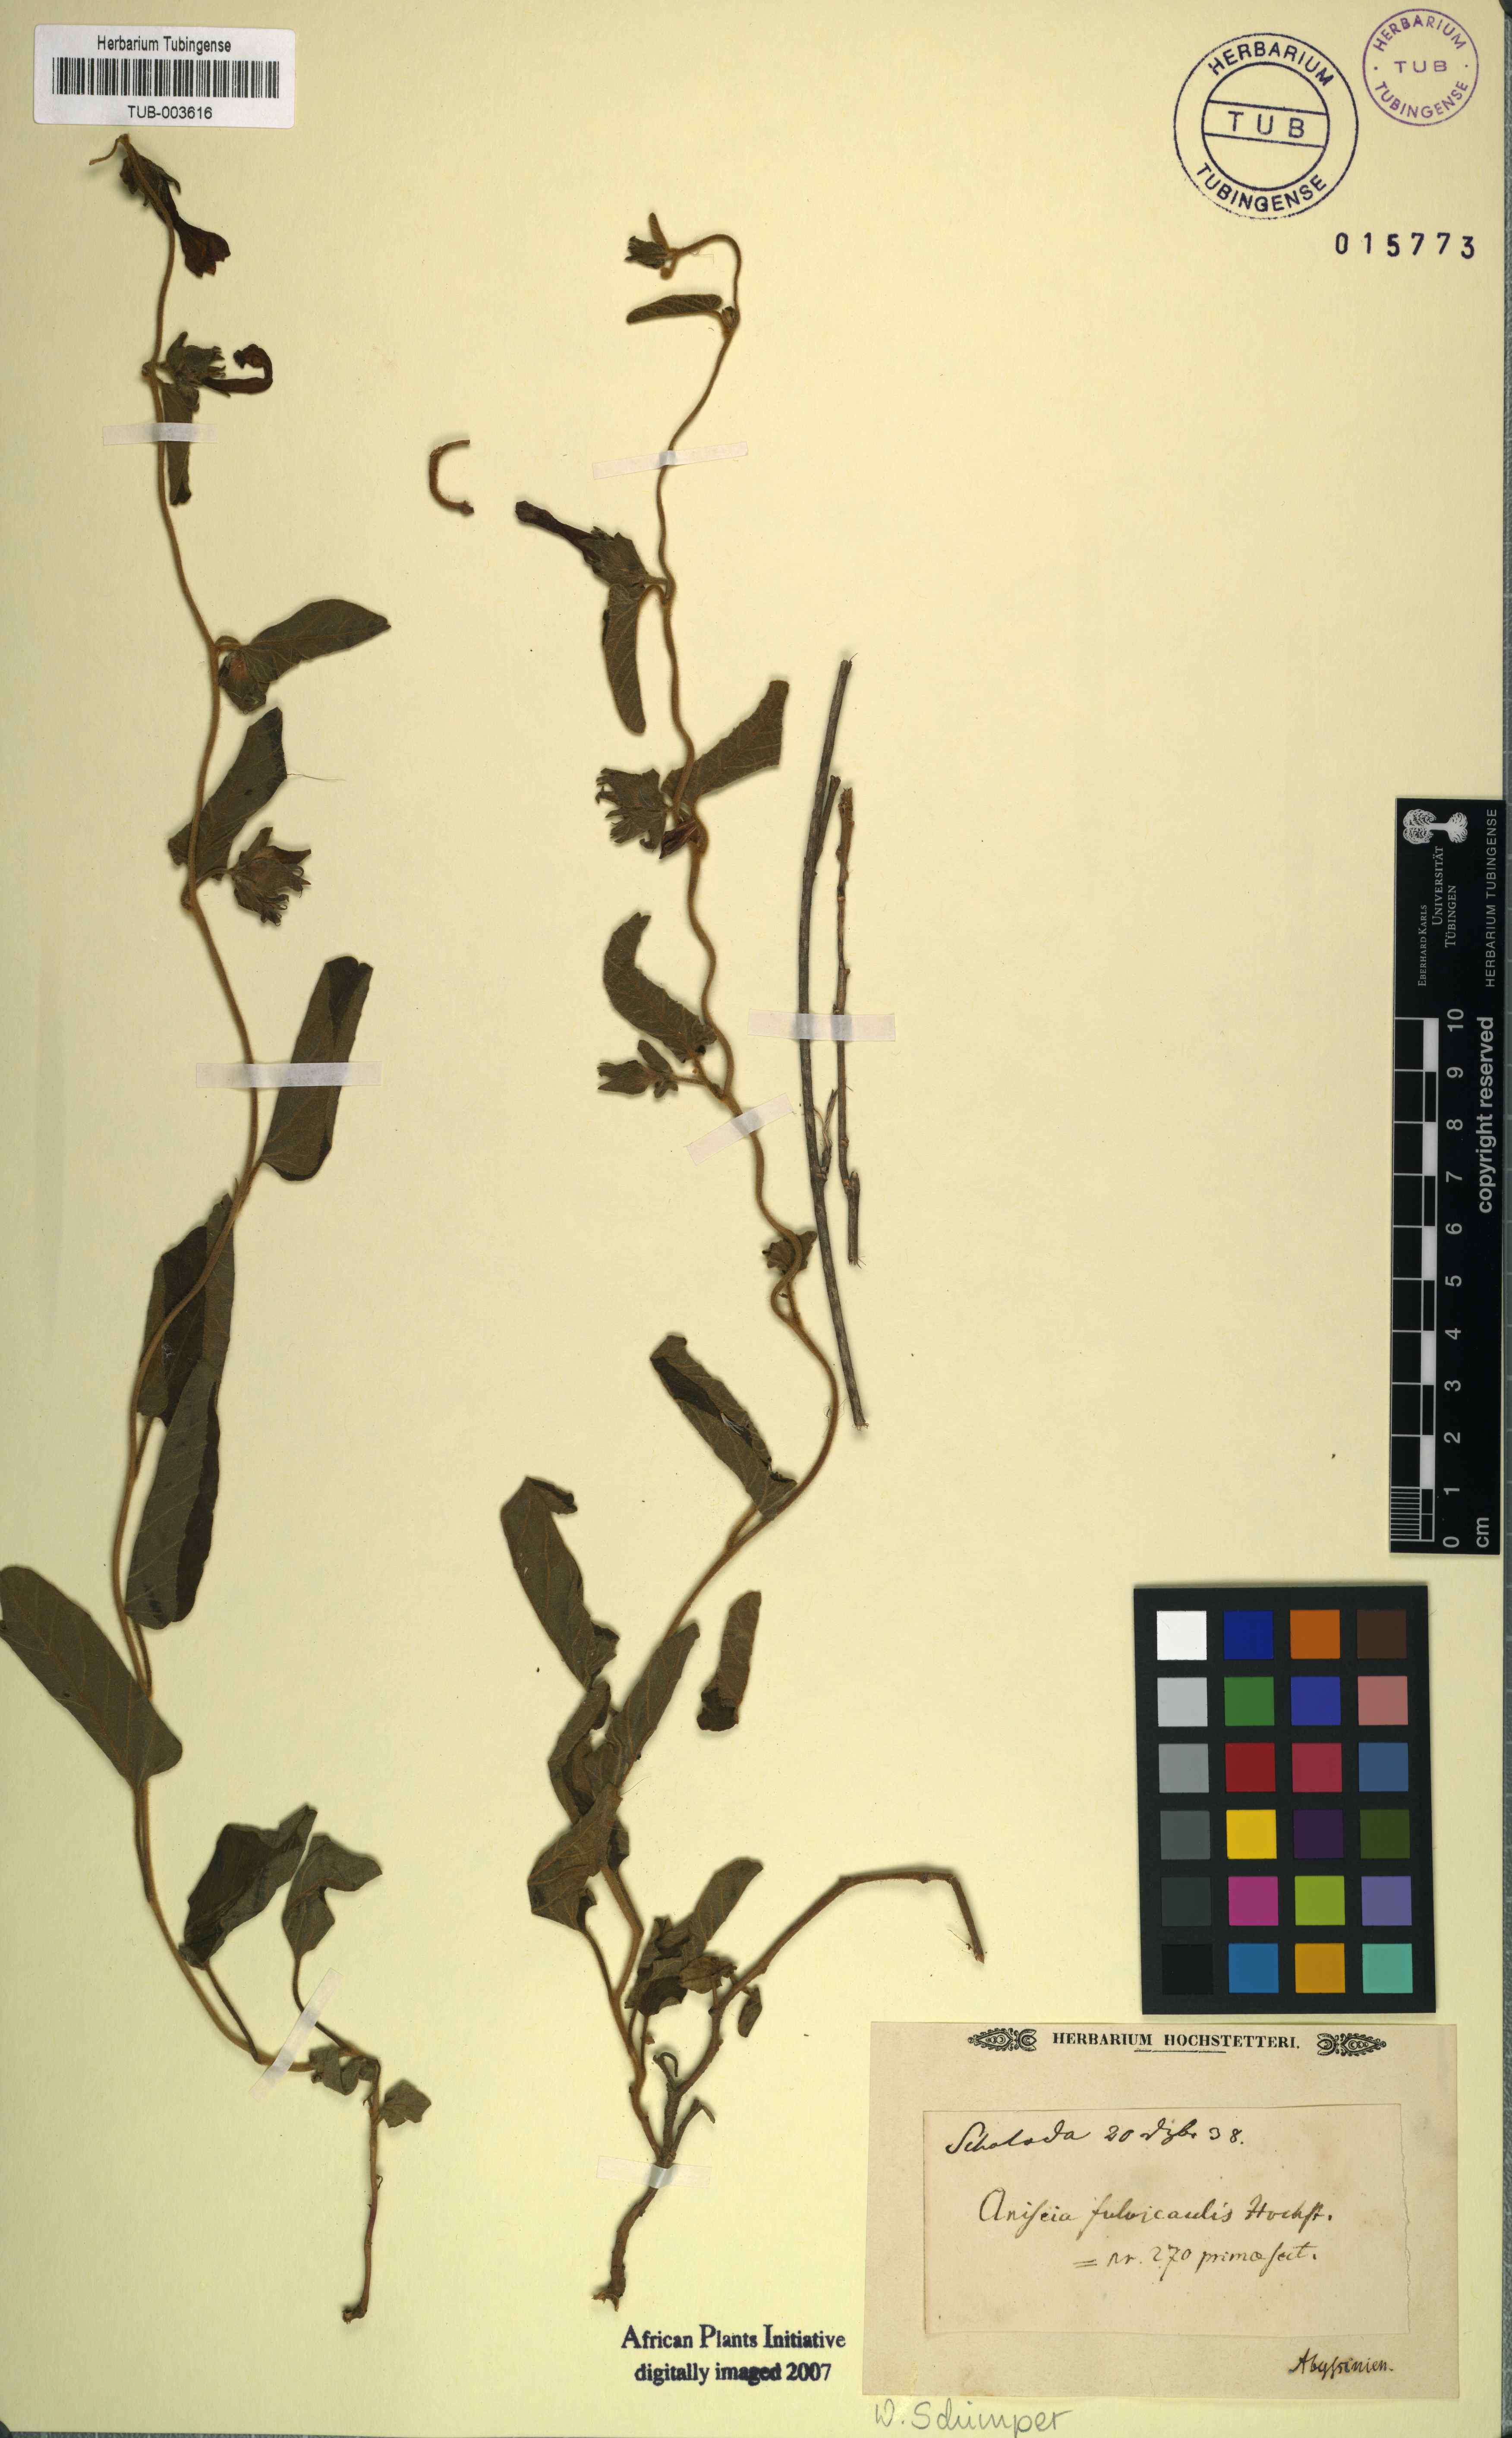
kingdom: Plantae
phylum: Tracheophyta
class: Magnoliopsida
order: Solanales
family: Convolvulaceae
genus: Ipomoea
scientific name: Ipomoea fulvicaulis
